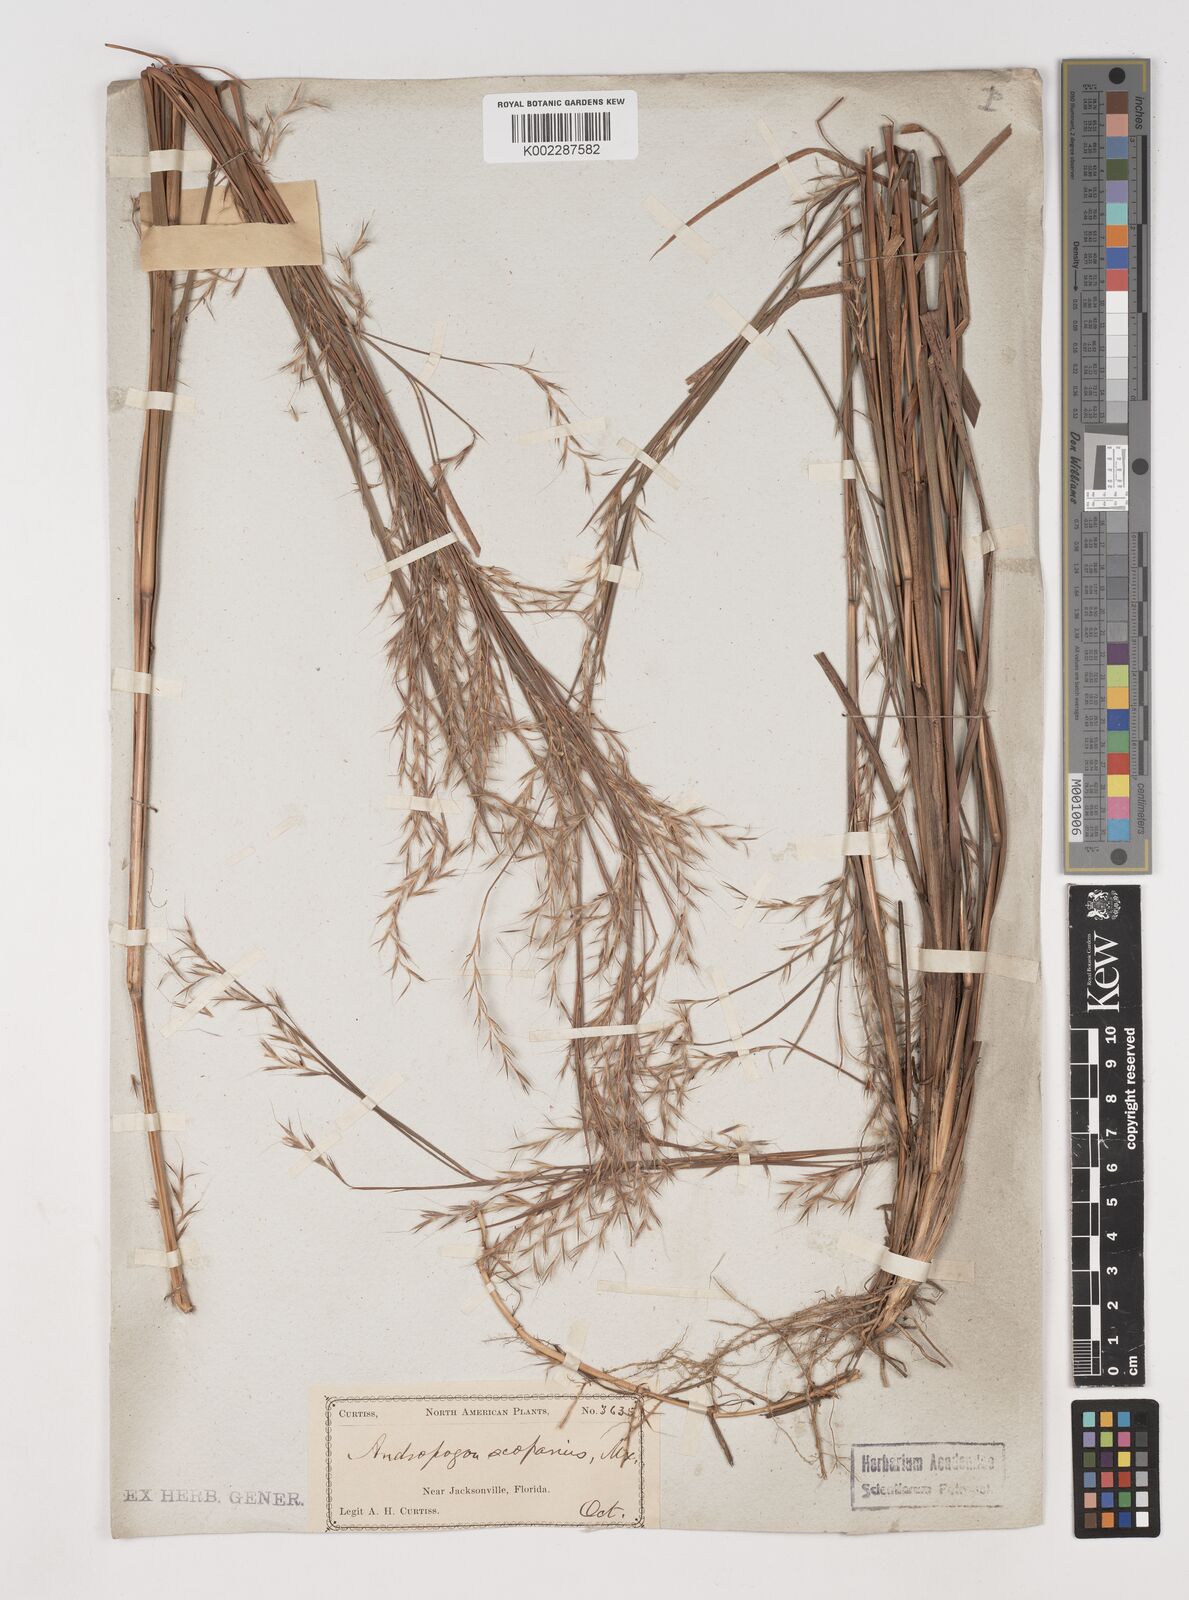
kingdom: Plantae
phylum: Tracheophyta
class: Liliopsida
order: Poales
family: Poaceae
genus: Schizachyrium
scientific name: Schizachyrium scoparium
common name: Little bluestem
